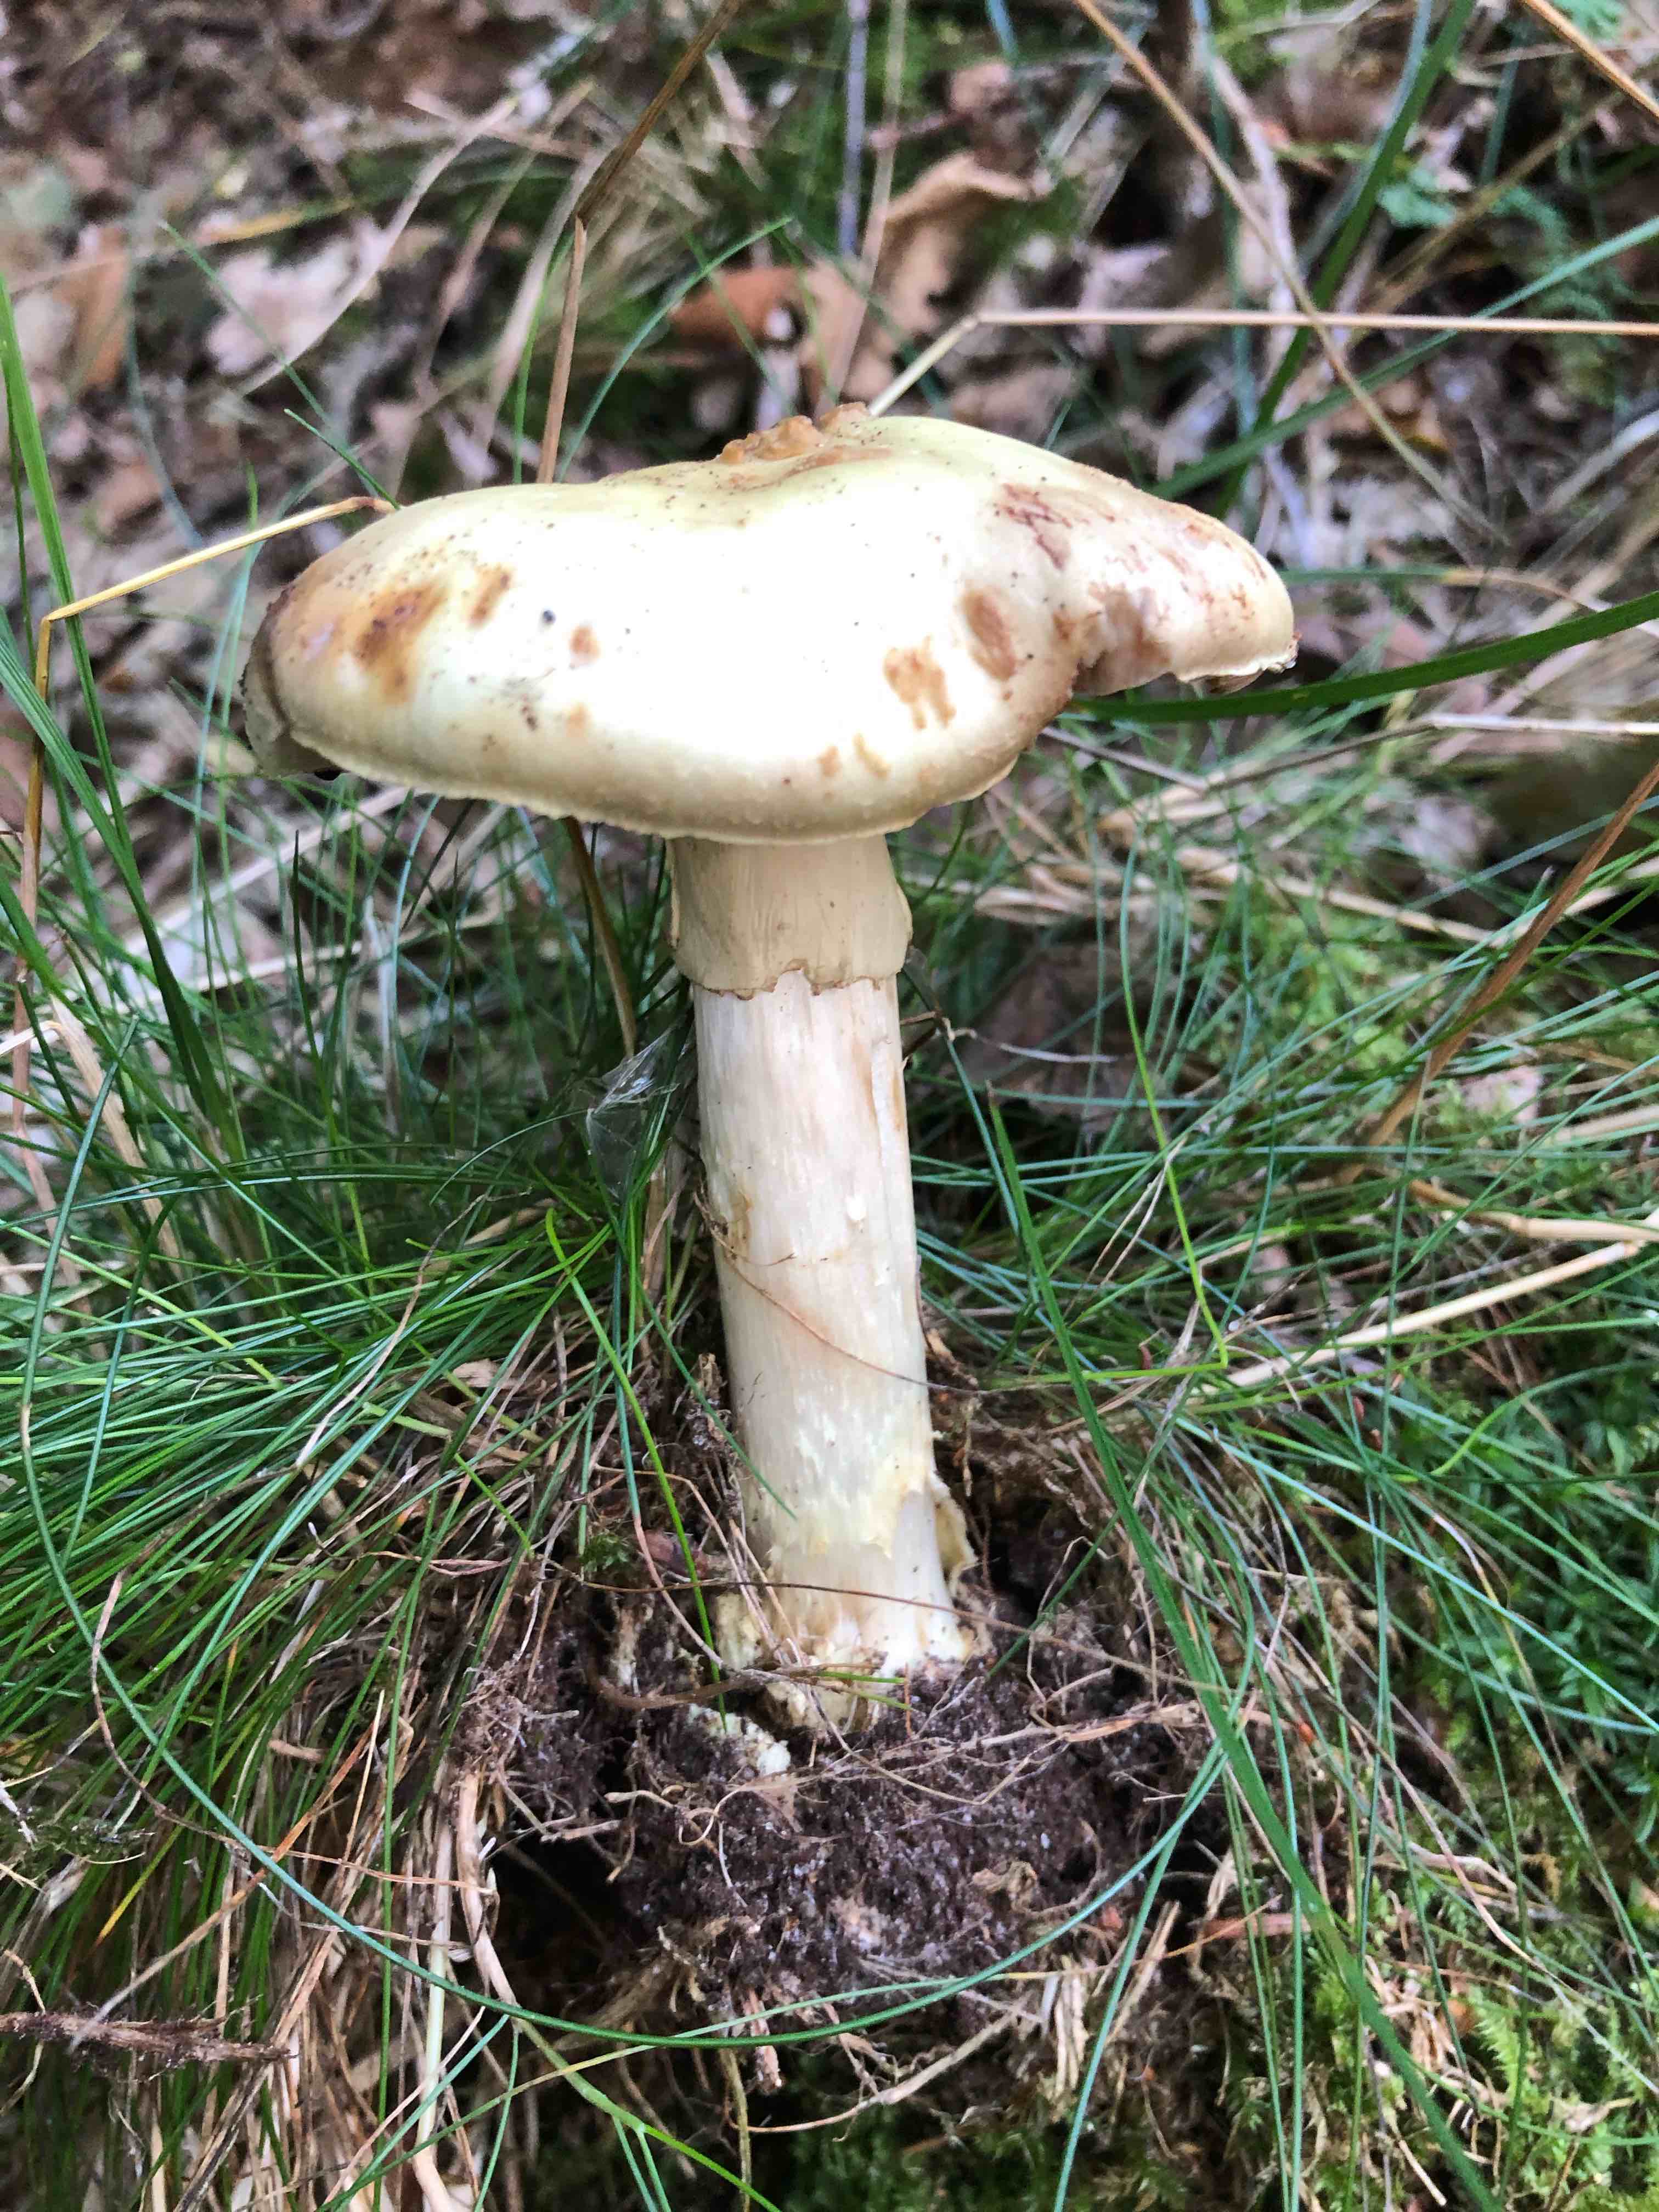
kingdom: Fungi
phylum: Basidiomycota
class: Agaricomycetes
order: Agaricales
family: Amanitaceae
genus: Amanita
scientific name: Amanita citrina
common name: kugleknoldet fluesvamp
